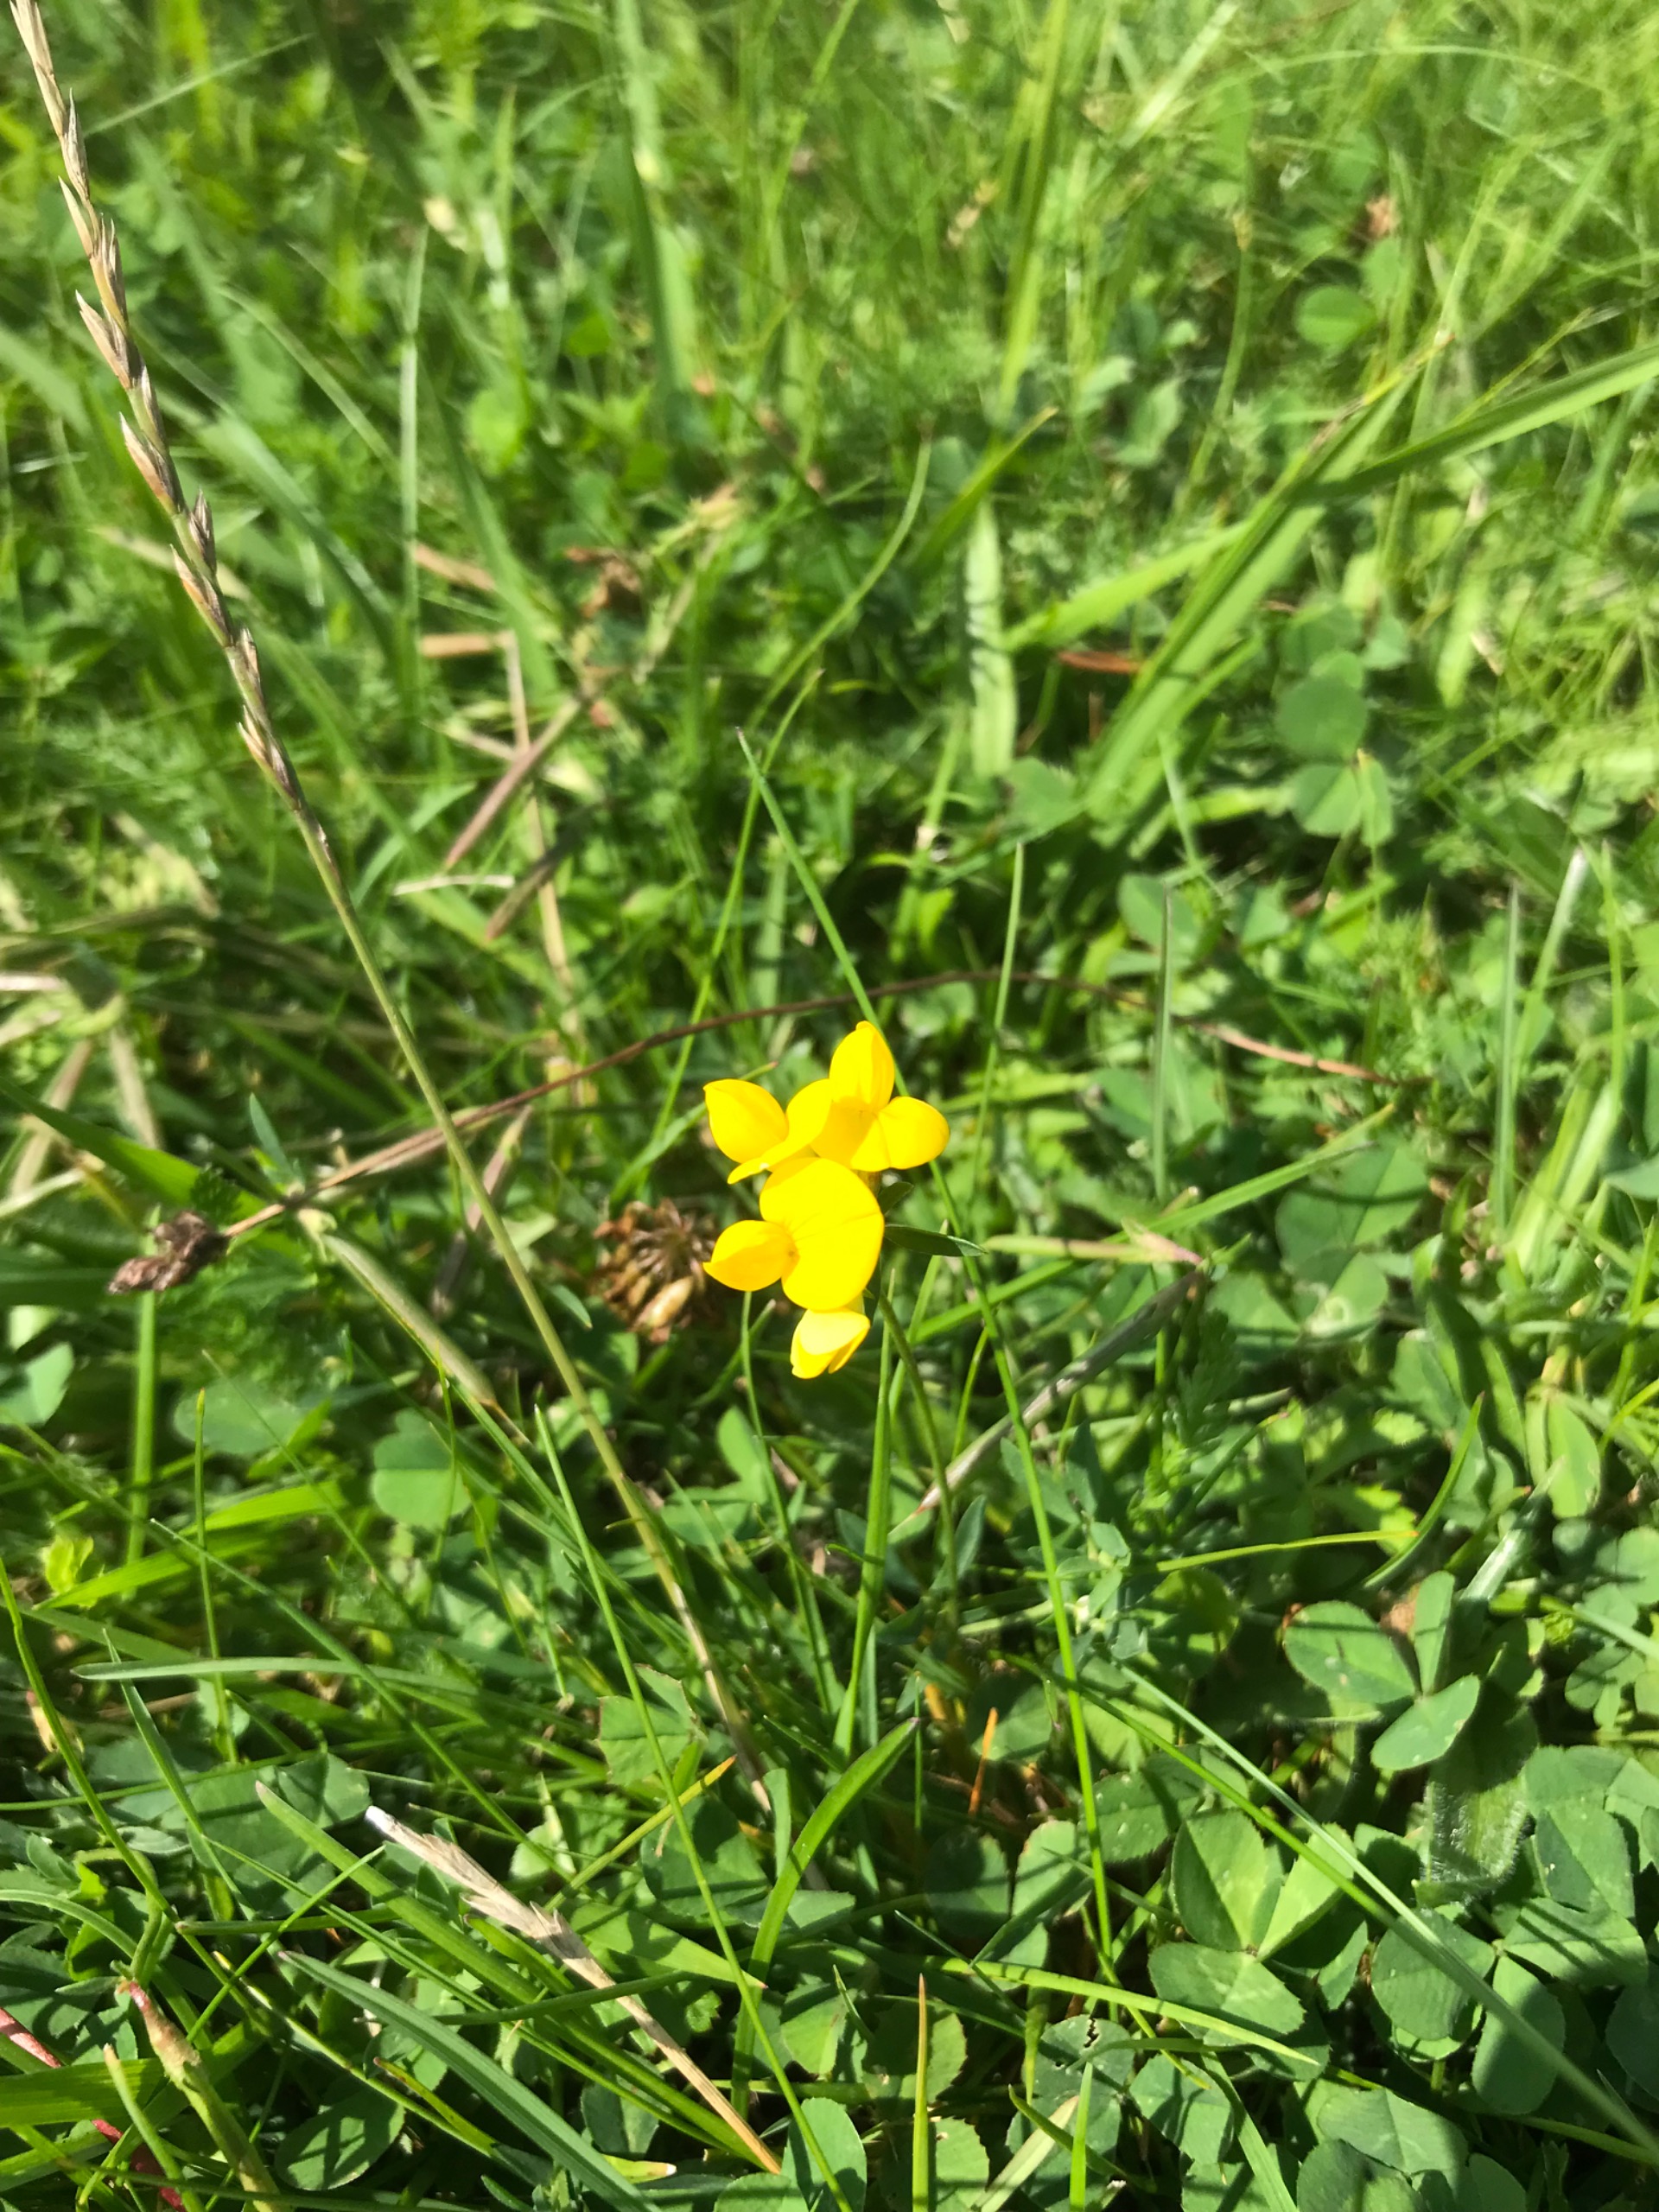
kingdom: Plantae
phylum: Tracheophyta
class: Magnoliopsida
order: Fabales
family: Fabaceae
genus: Lotus
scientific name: Lotus corniculatus
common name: Almindelig kællingetand
